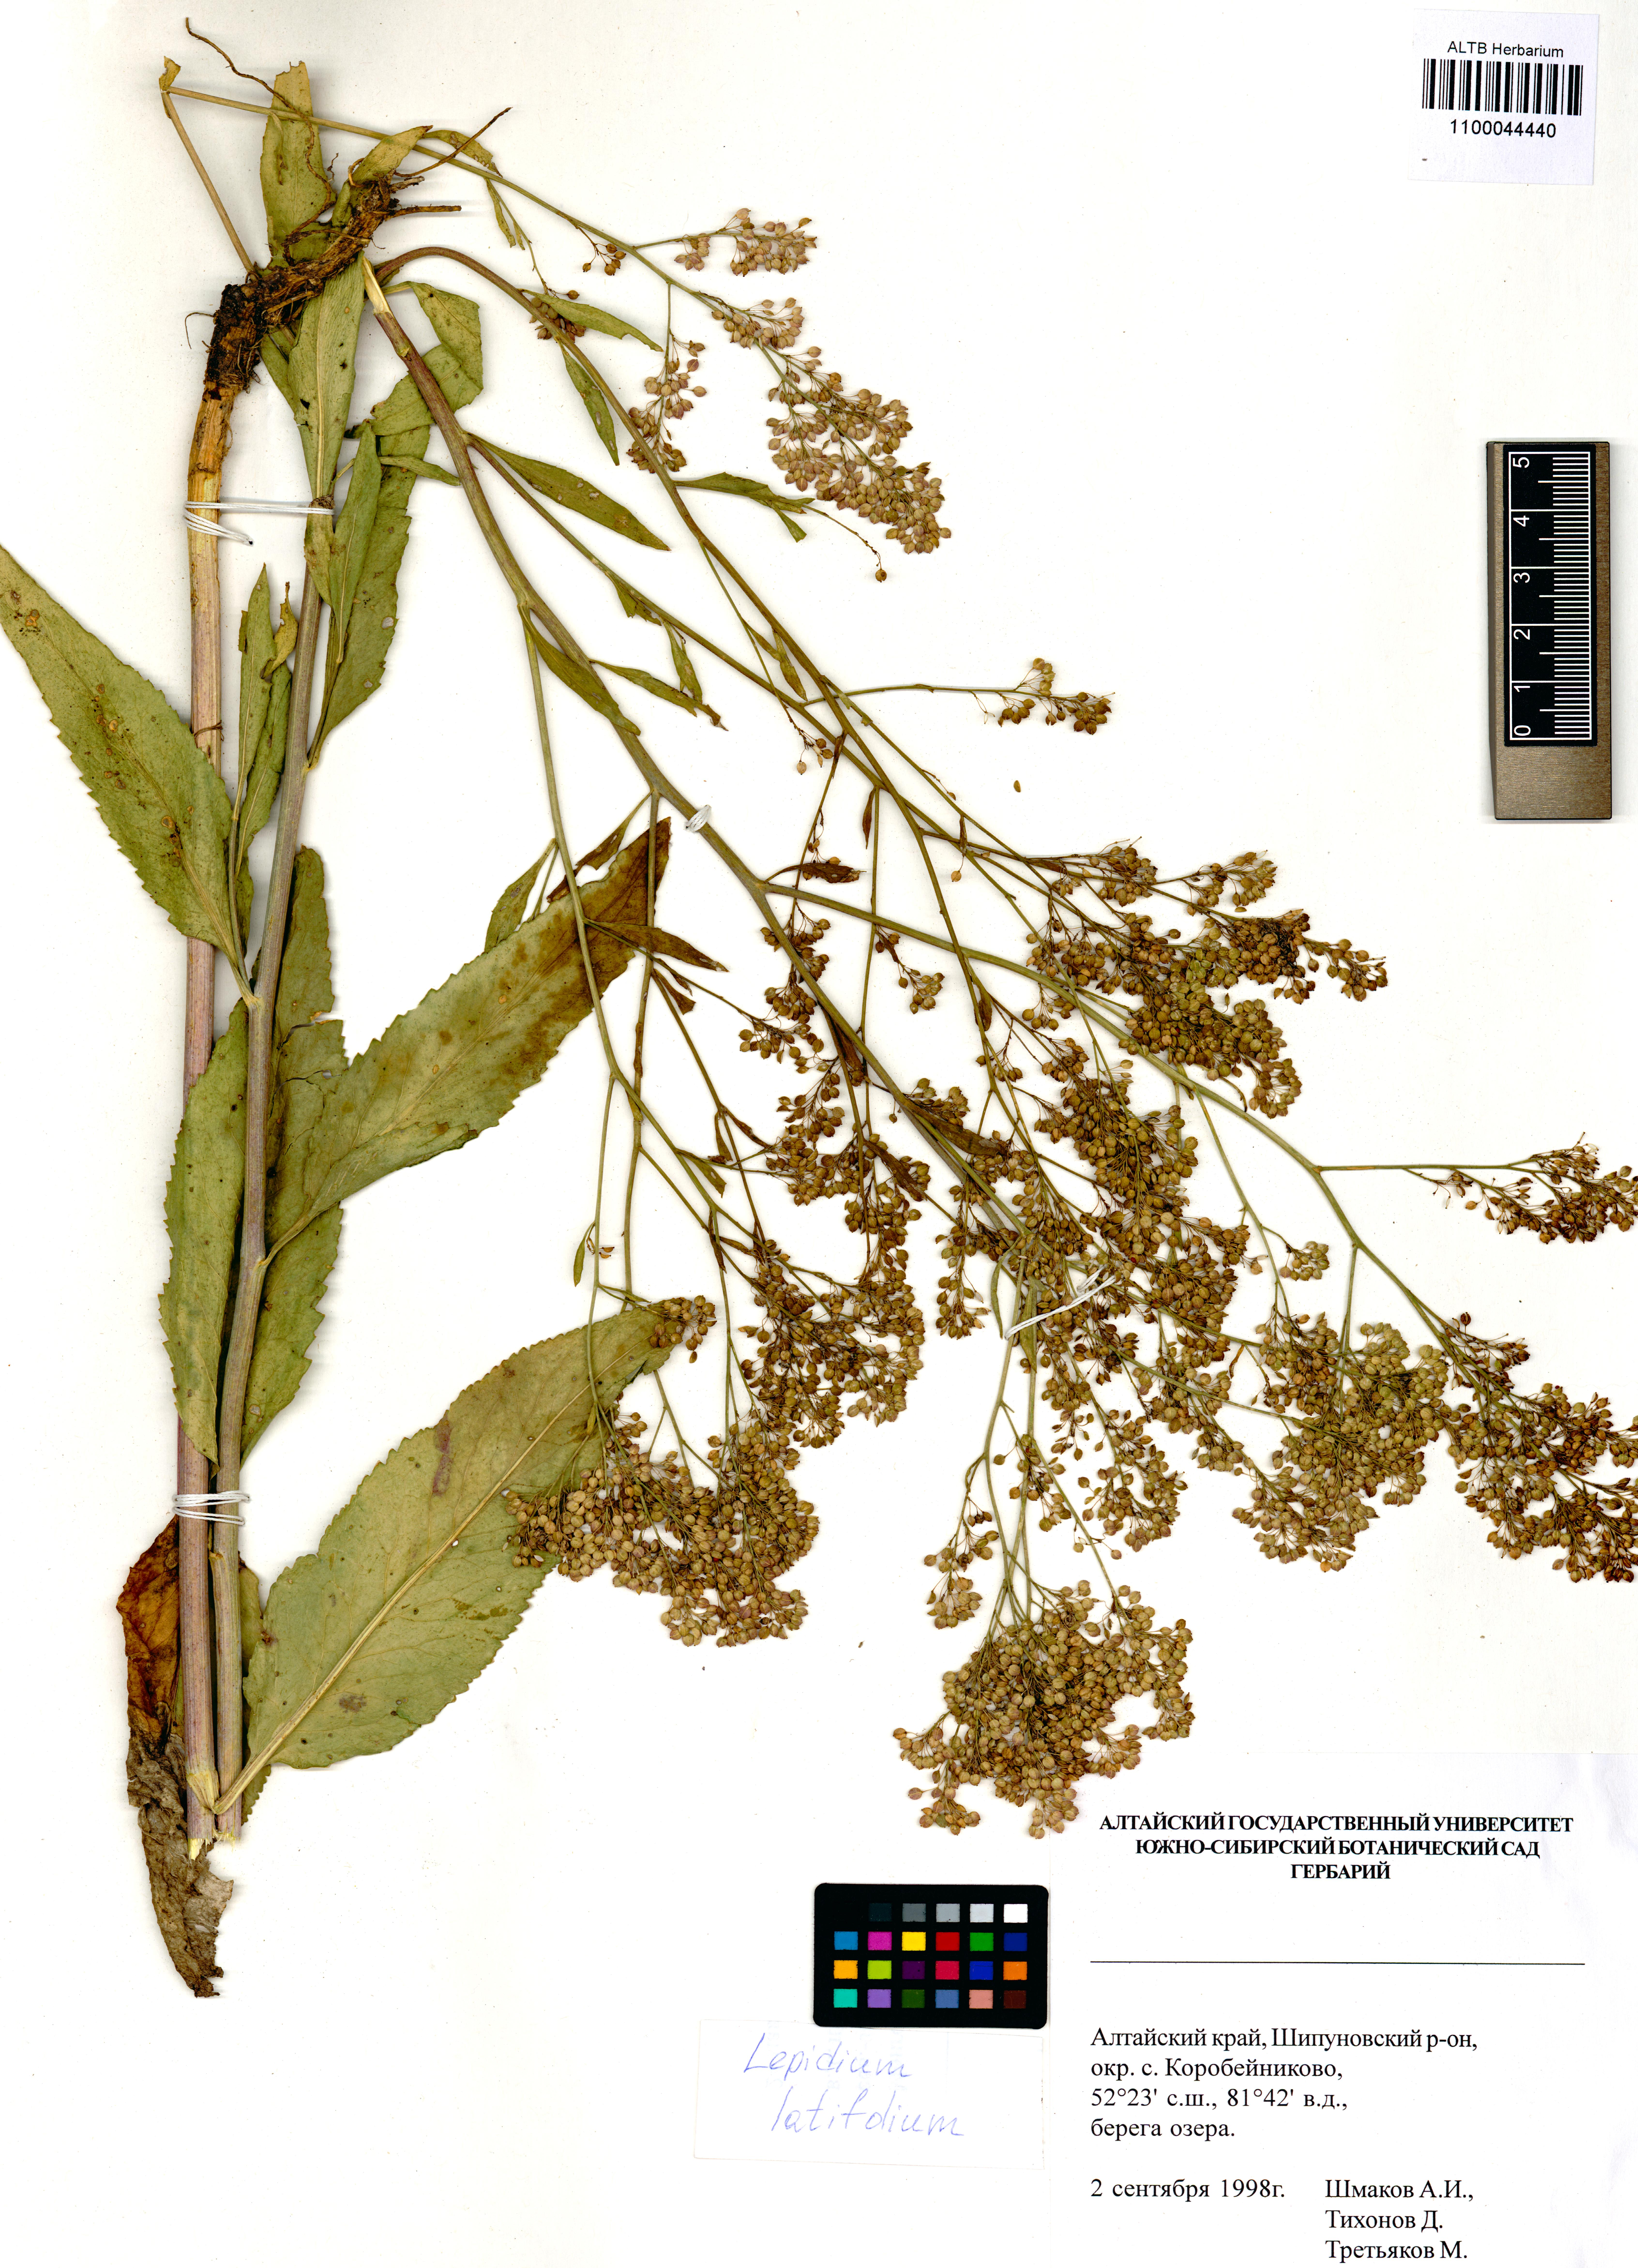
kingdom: Plantae
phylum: Tracheophyta
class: Magnoliopsida
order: Brassicales
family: Brassicaceae
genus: Lepidium
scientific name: Lepidium latifolium
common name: Dittander
